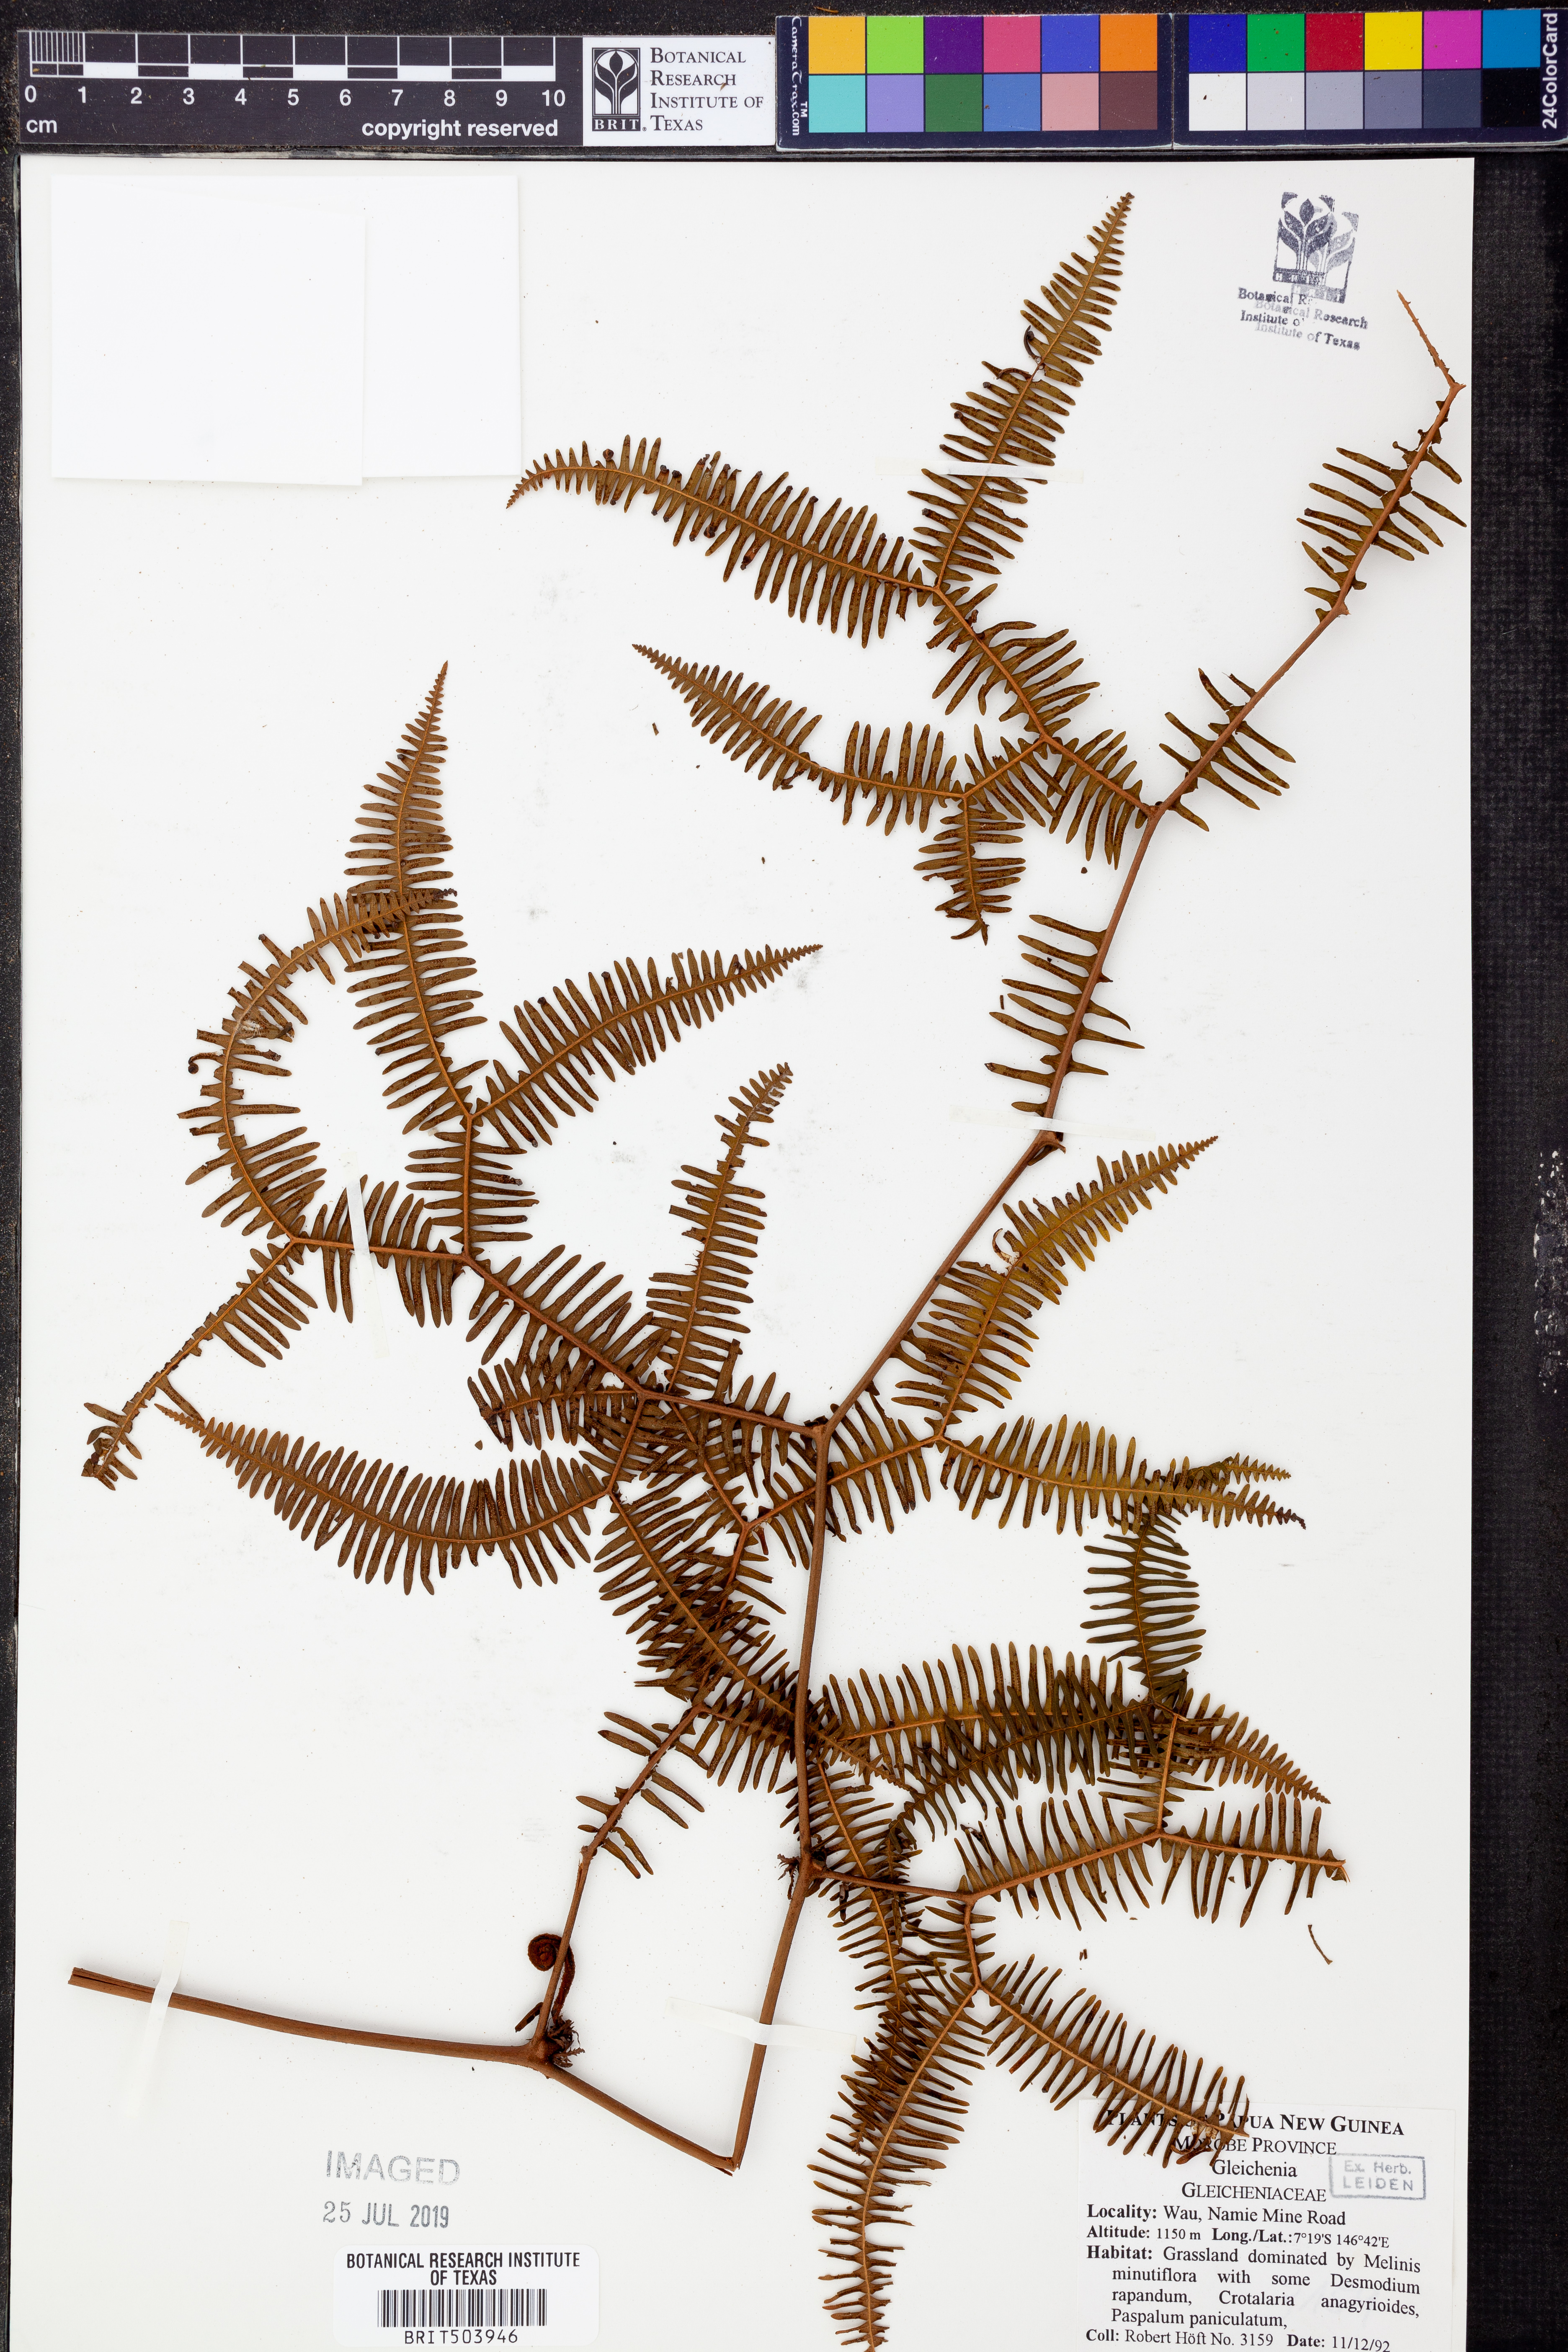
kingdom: Plantae
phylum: Tracheophyta
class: Polypodiopsida
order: Gleicheniales
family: Gleicheniaceae
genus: Gleichenia
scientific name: Gleichenia
